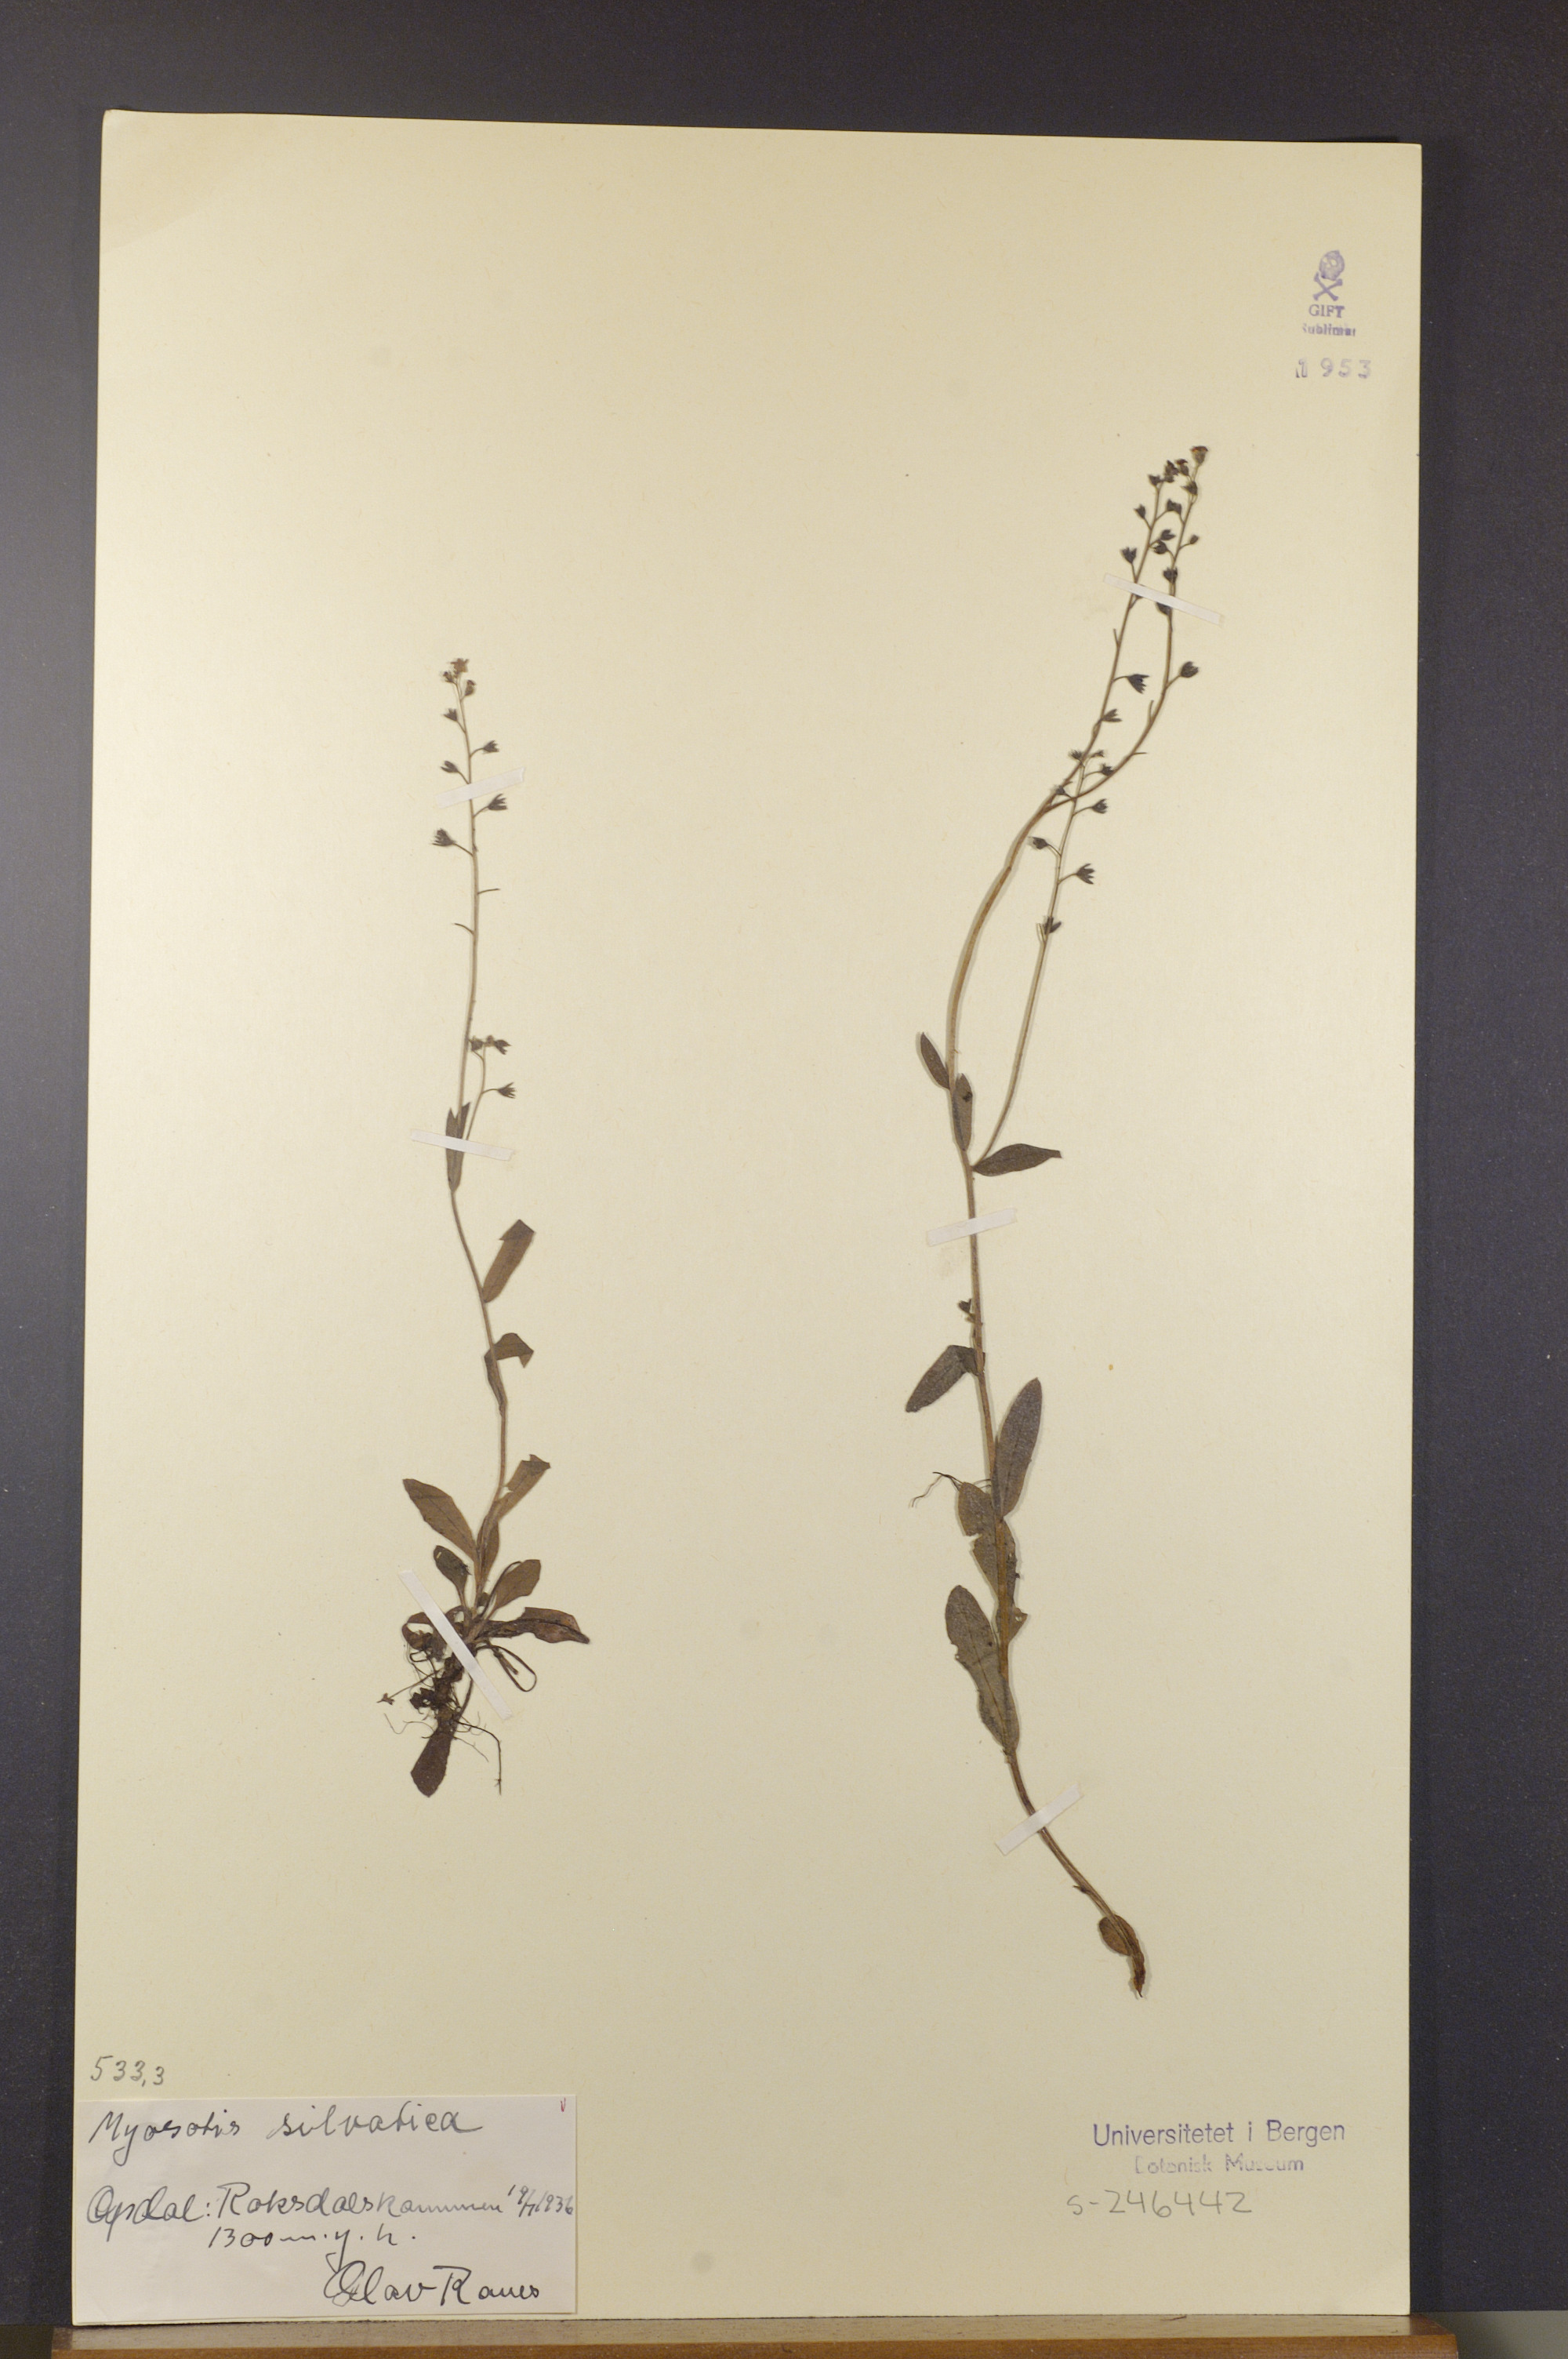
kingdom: Plantae
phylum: Tracheophyta
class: Magnoliopsida
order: Boraginales
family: Boraginaceae
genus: Myosotis
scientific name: Myosotis decumbens
